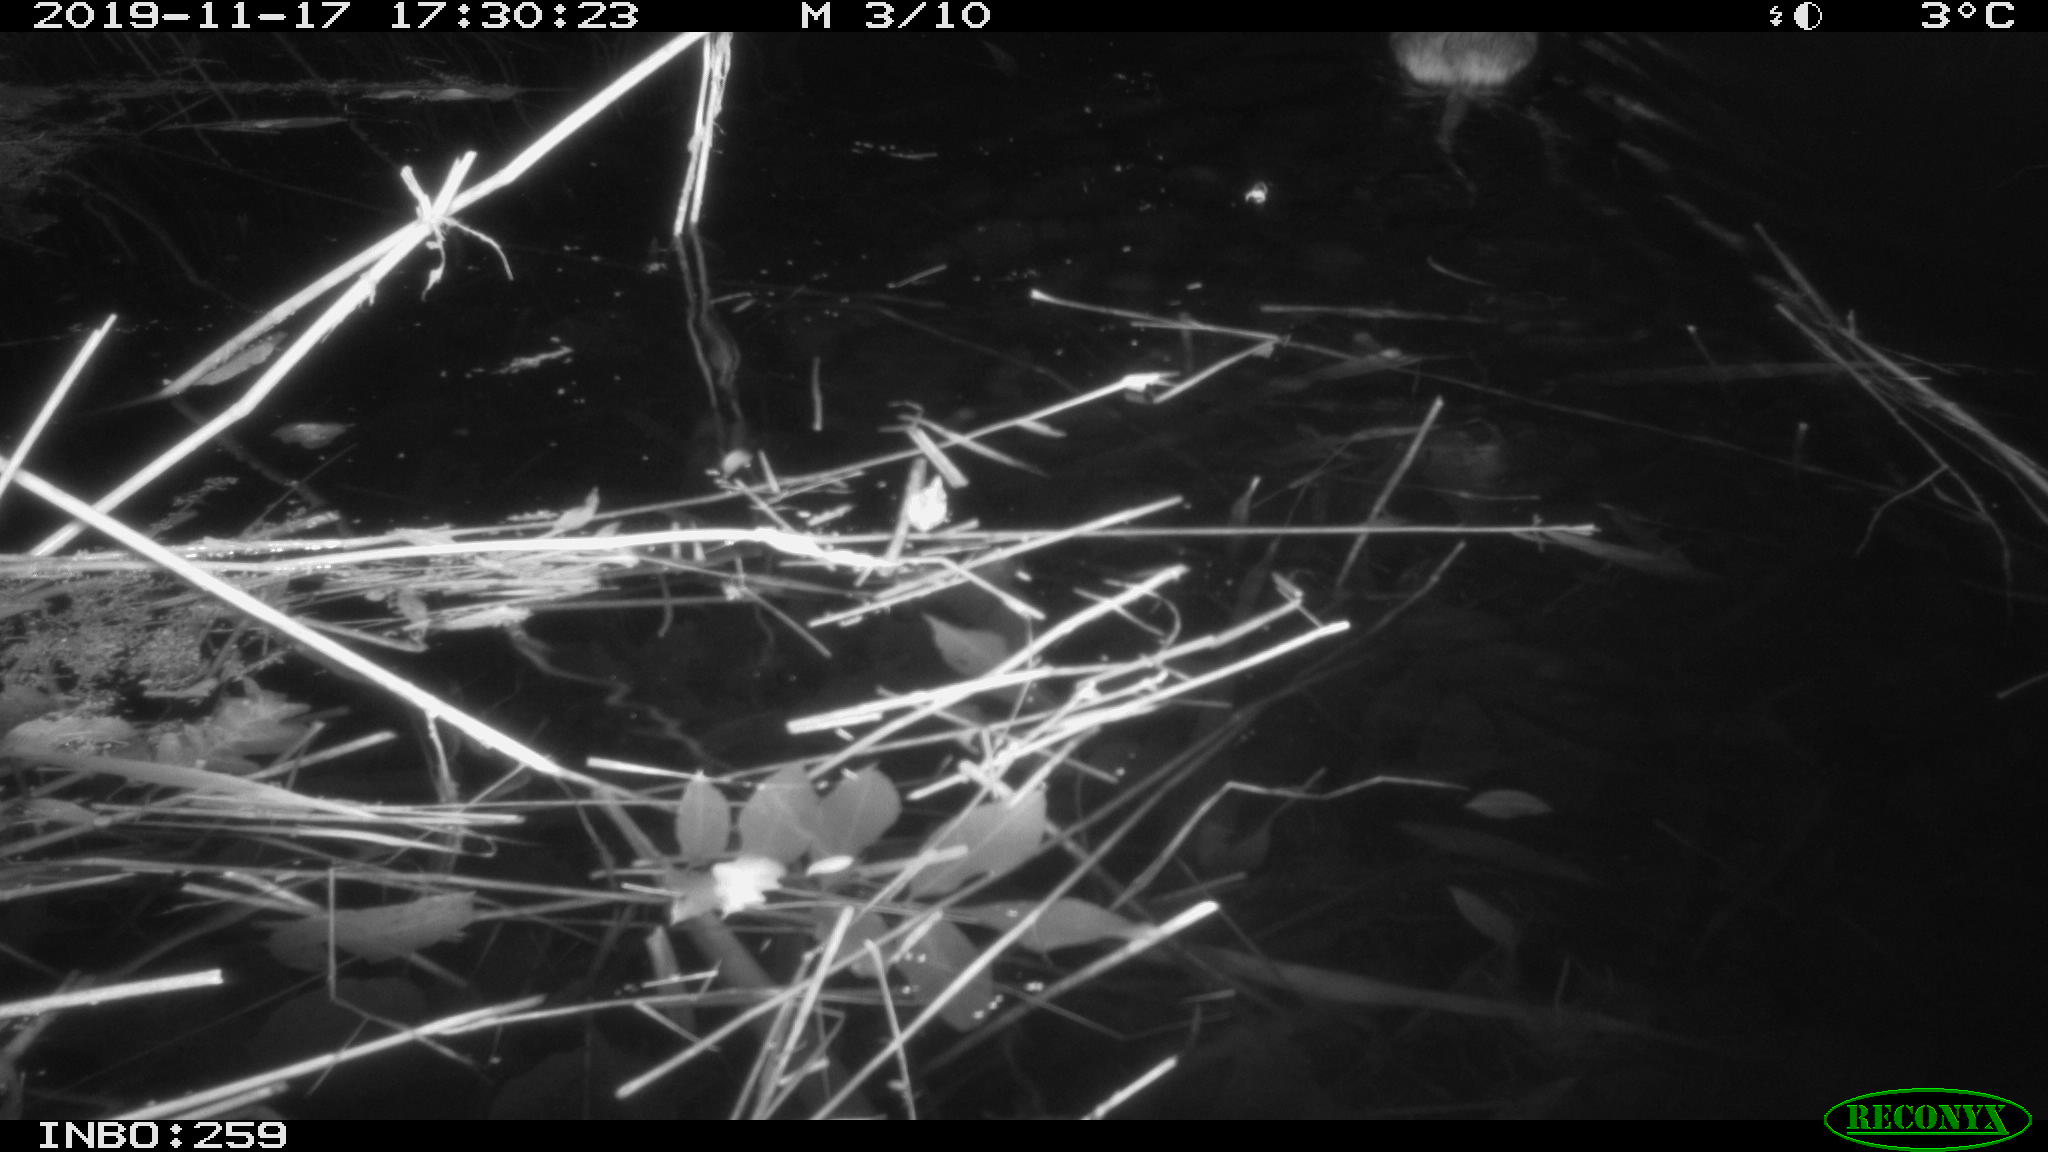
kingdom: Animalia
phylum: Chordata
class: Mammalia
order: Rodentia
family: Cricetidae
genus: Ondatra
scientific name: Ondatra zibethicus
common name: Muskrat
